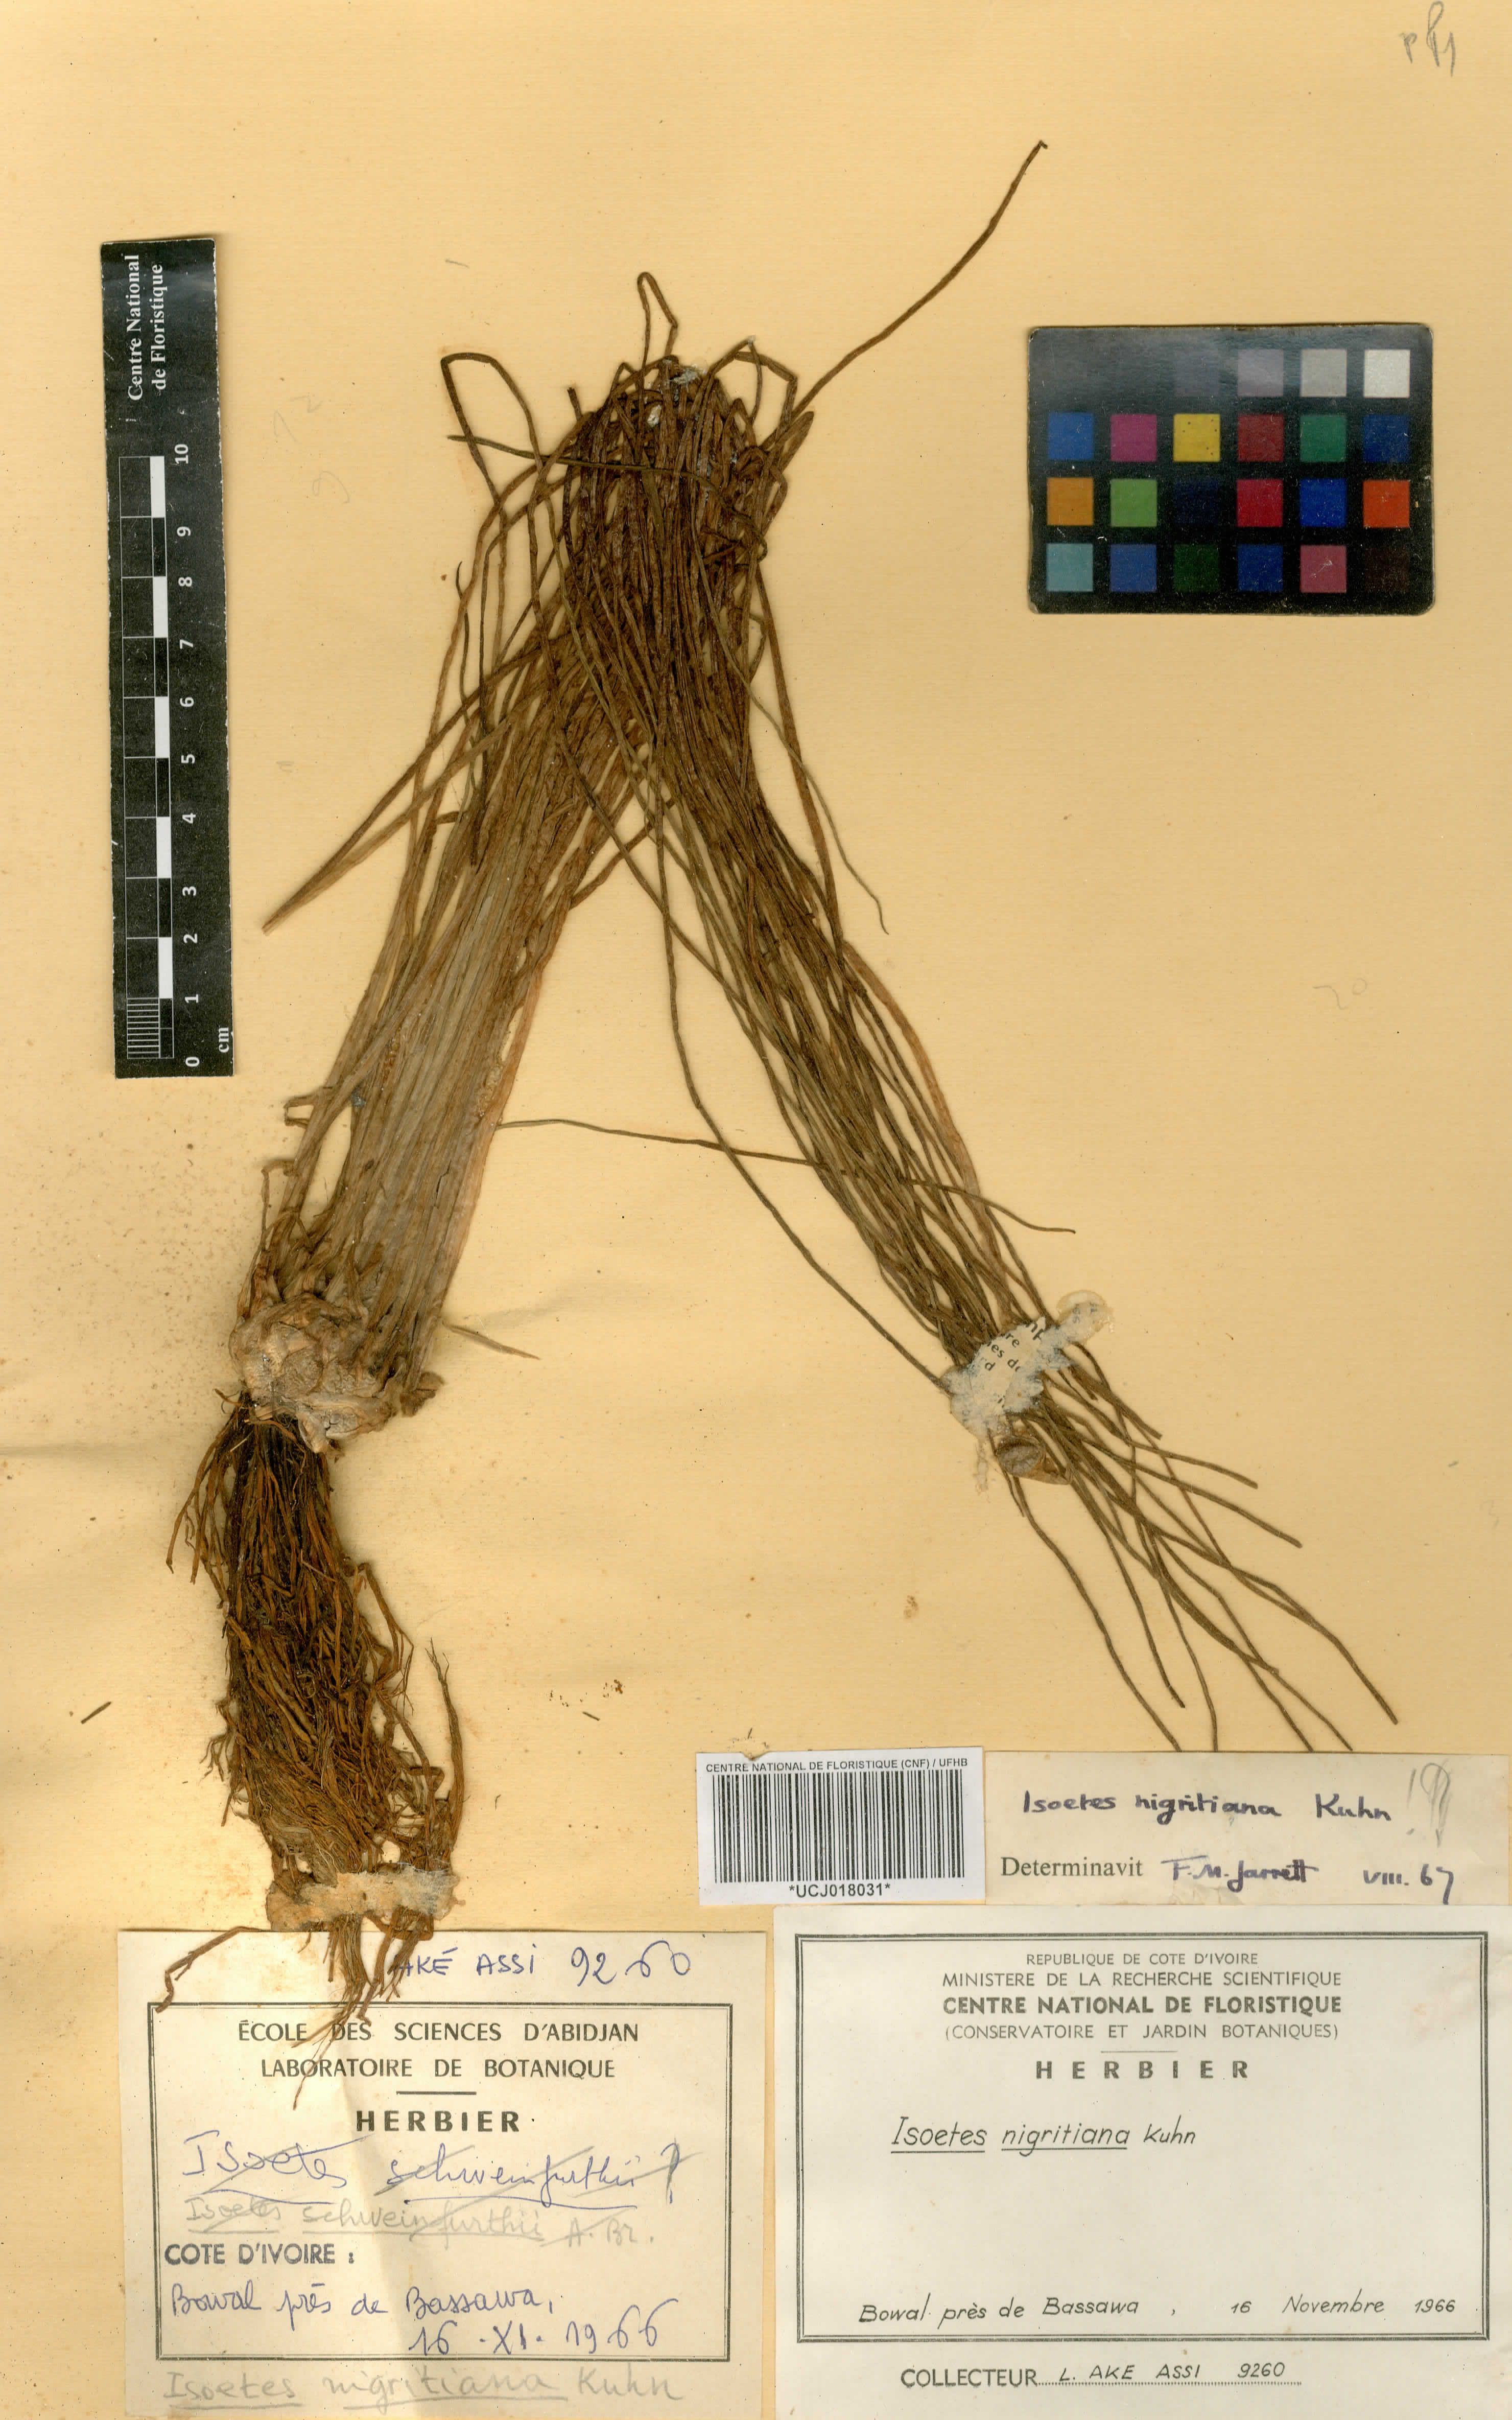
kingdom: Plantae
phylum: Tracheophyta
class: Lycopodiopsida
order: Isoetales
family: Isoetaceae
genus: Isoetes
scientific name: Isoetes nigritiana
